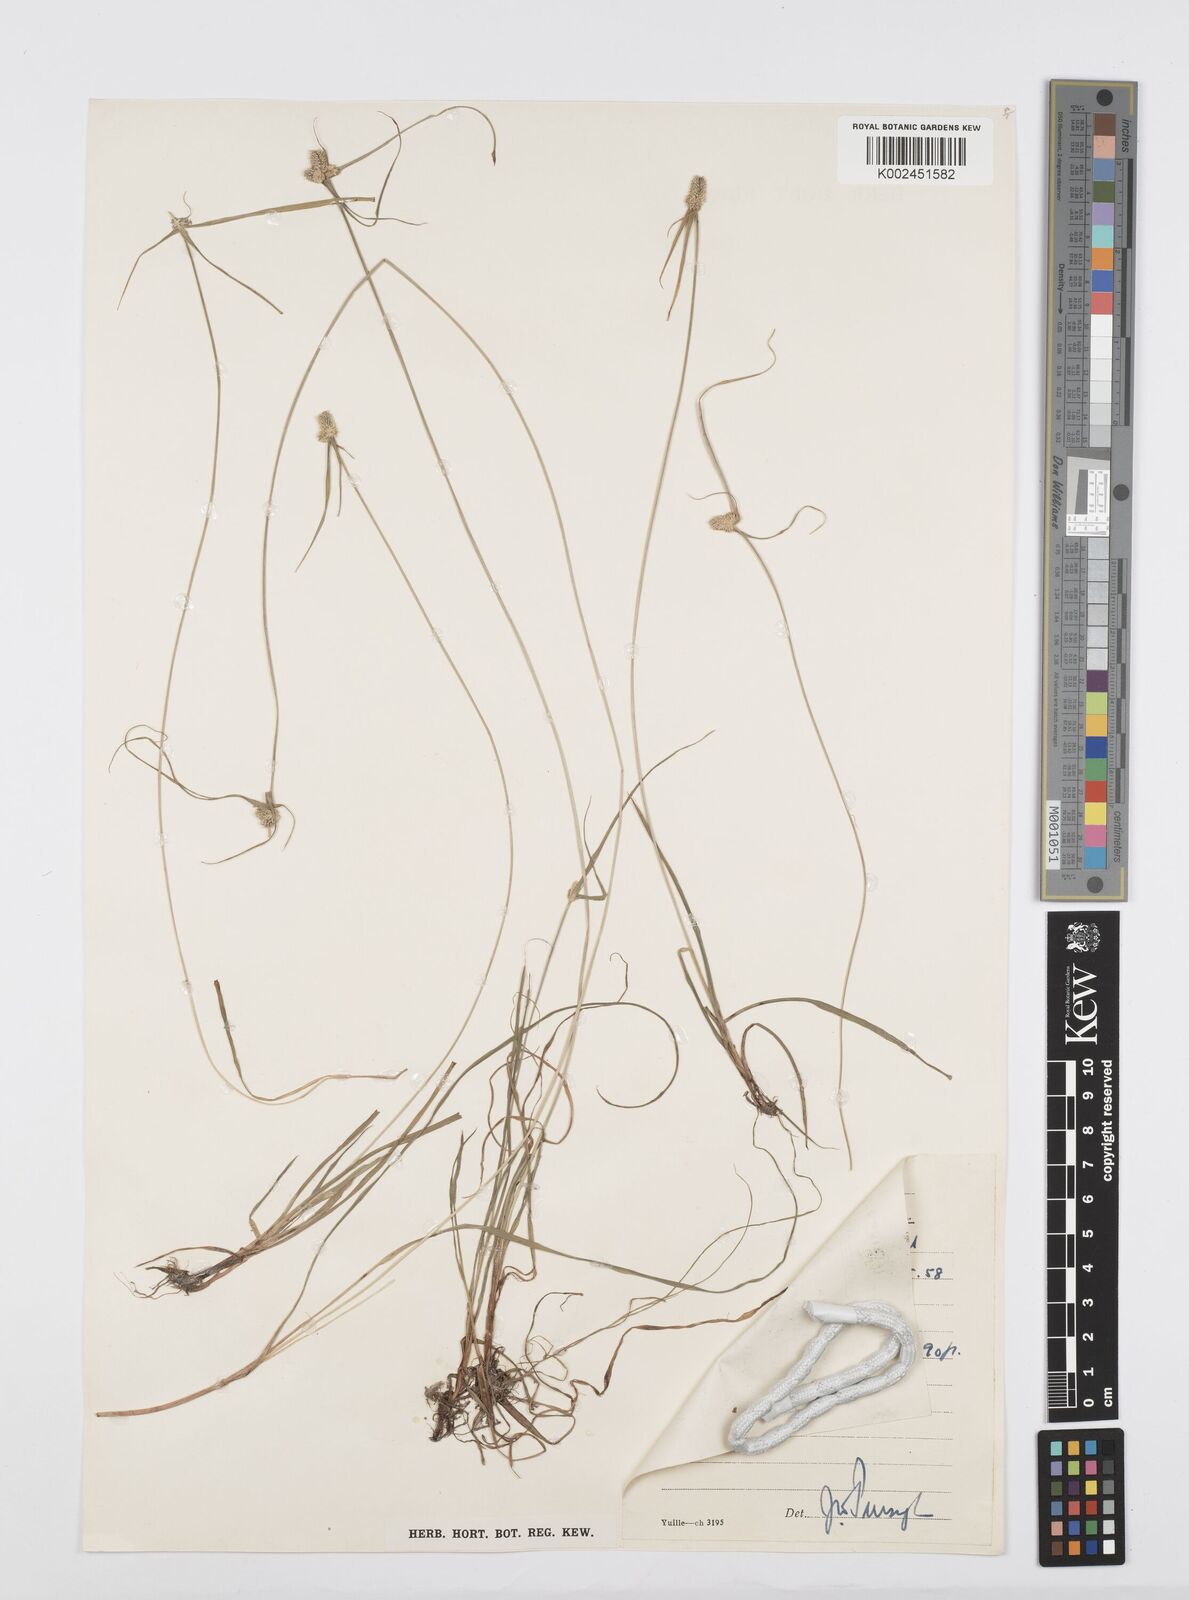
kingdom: Plantae
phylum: Tracheophyta
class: Liliopsida
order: Poales
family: Cyperaceae
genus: Cyperus
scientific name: Cyperus
